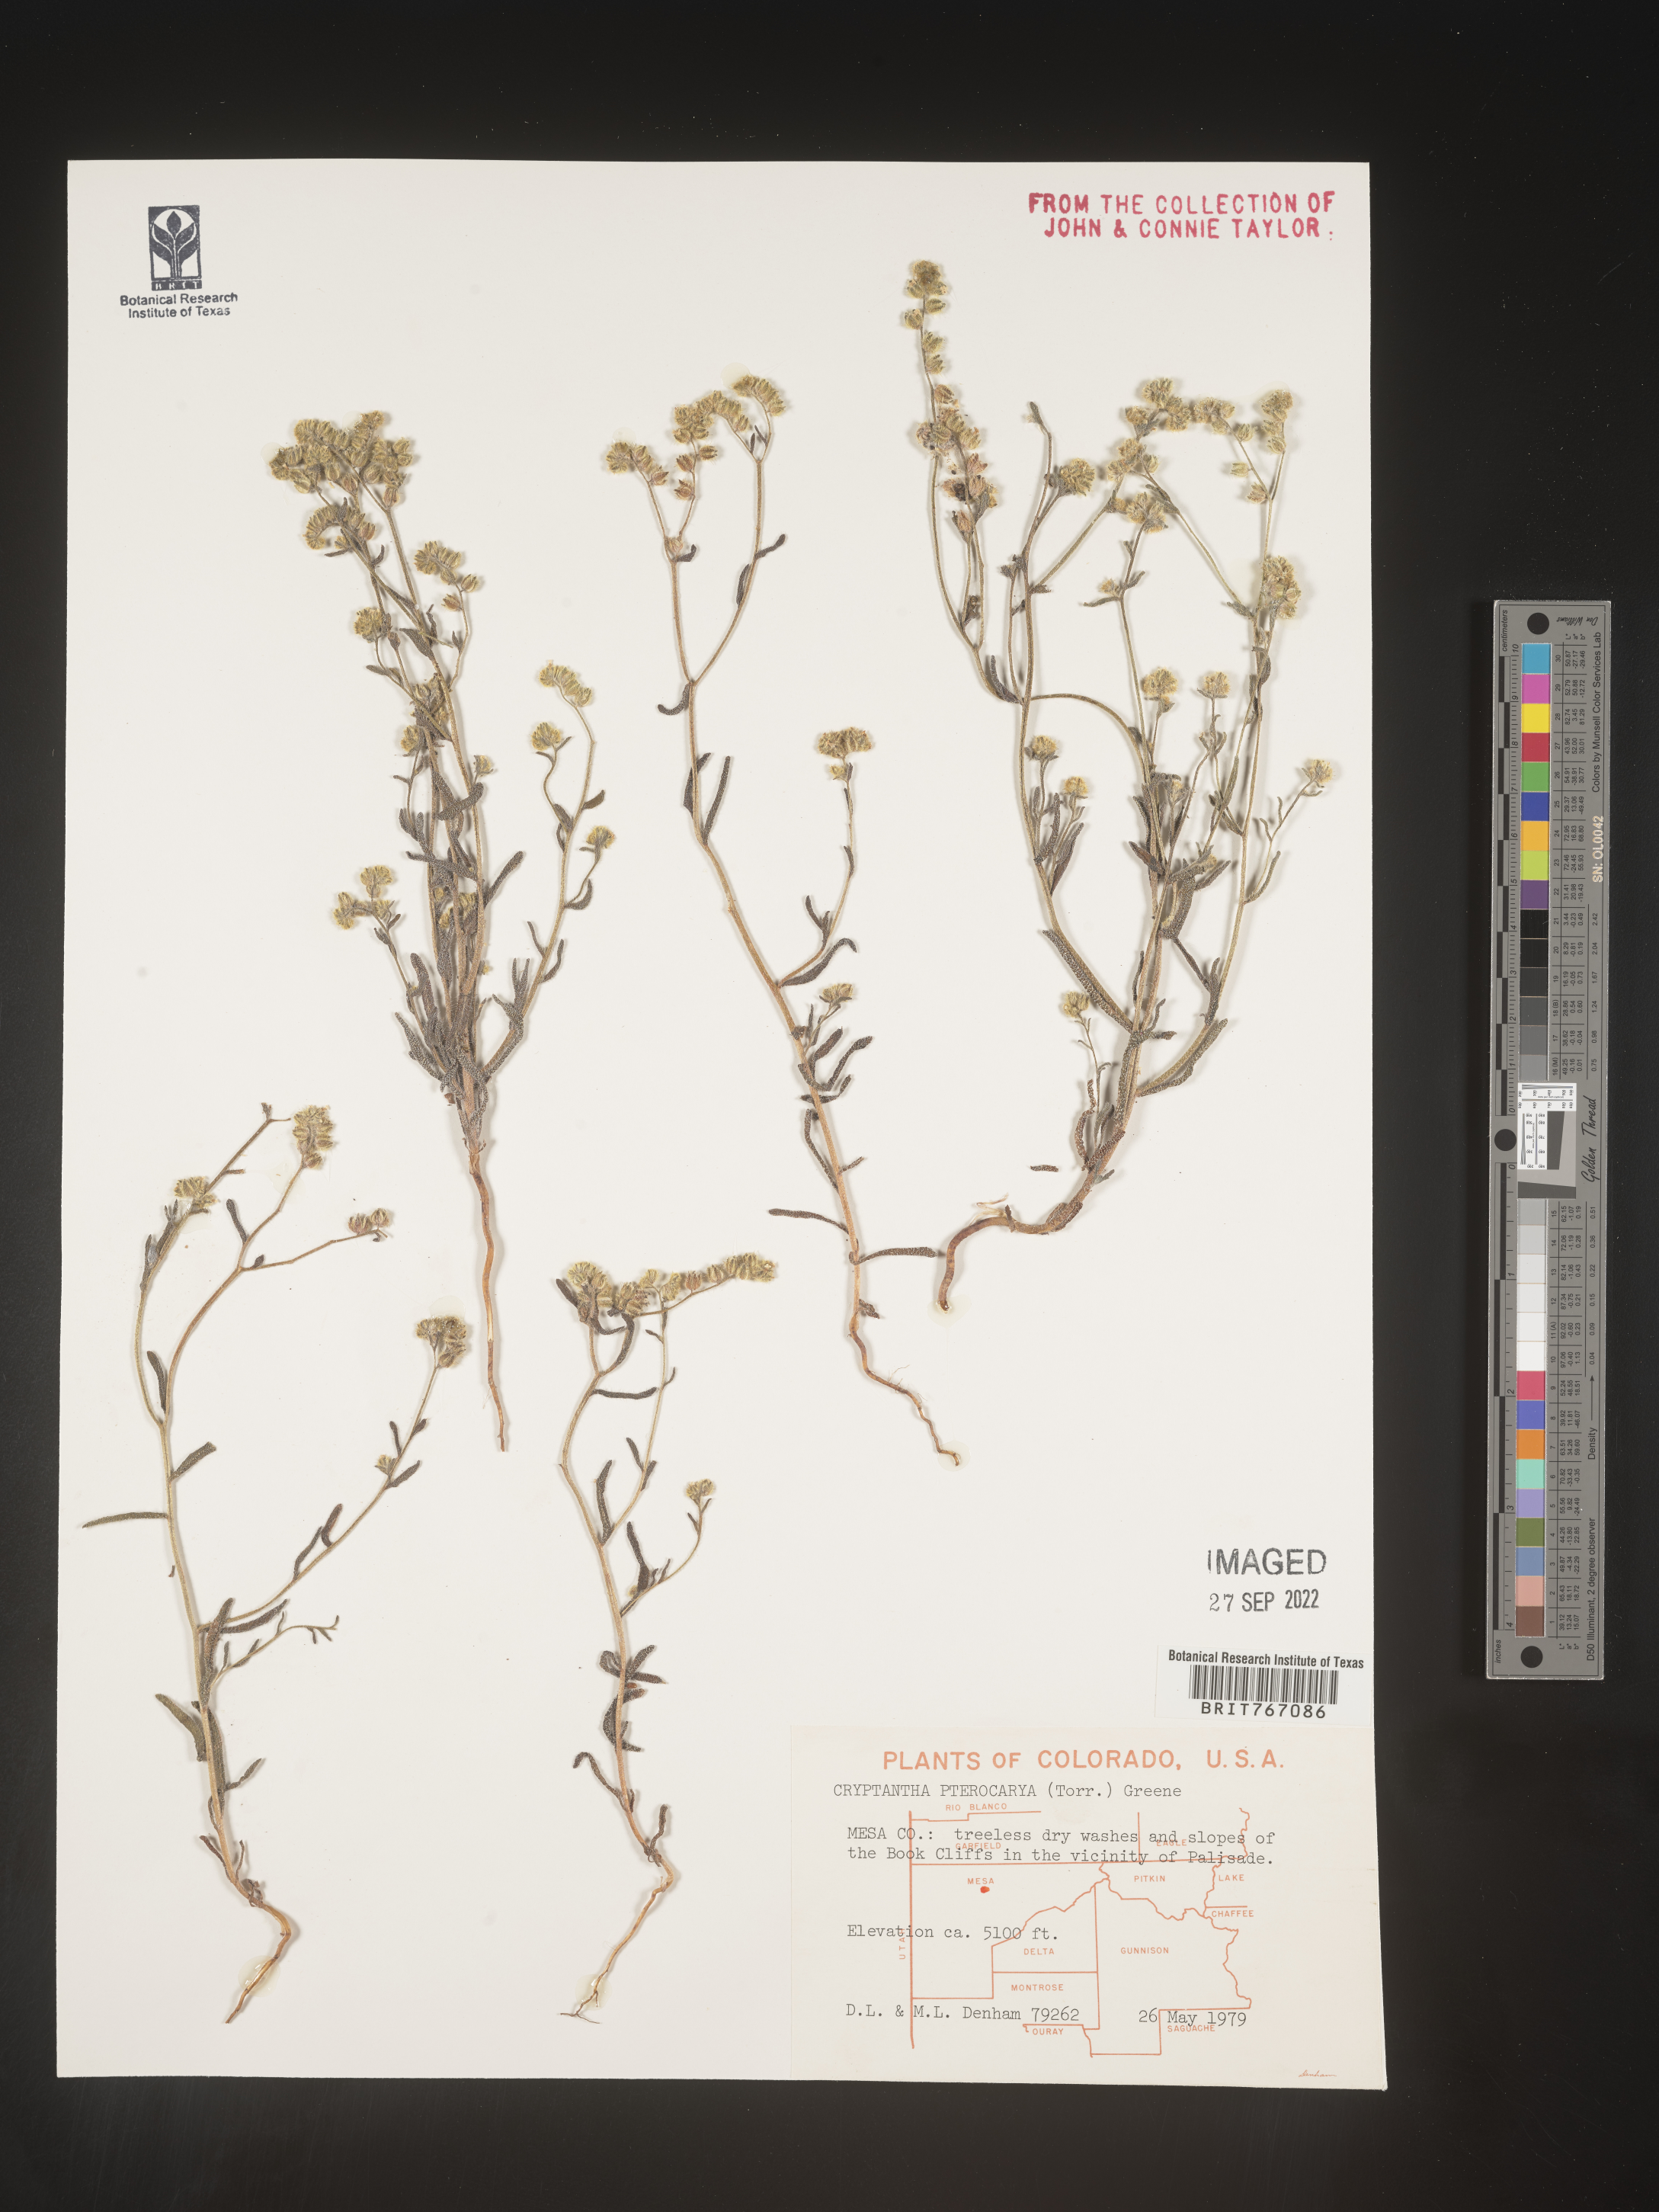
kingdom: Plantae
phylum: Tracheophyta
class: Magnoliopsida
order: Boraginales
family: Boraginaceae
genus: Cryptantha
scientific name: Cryptantha pterocarya
